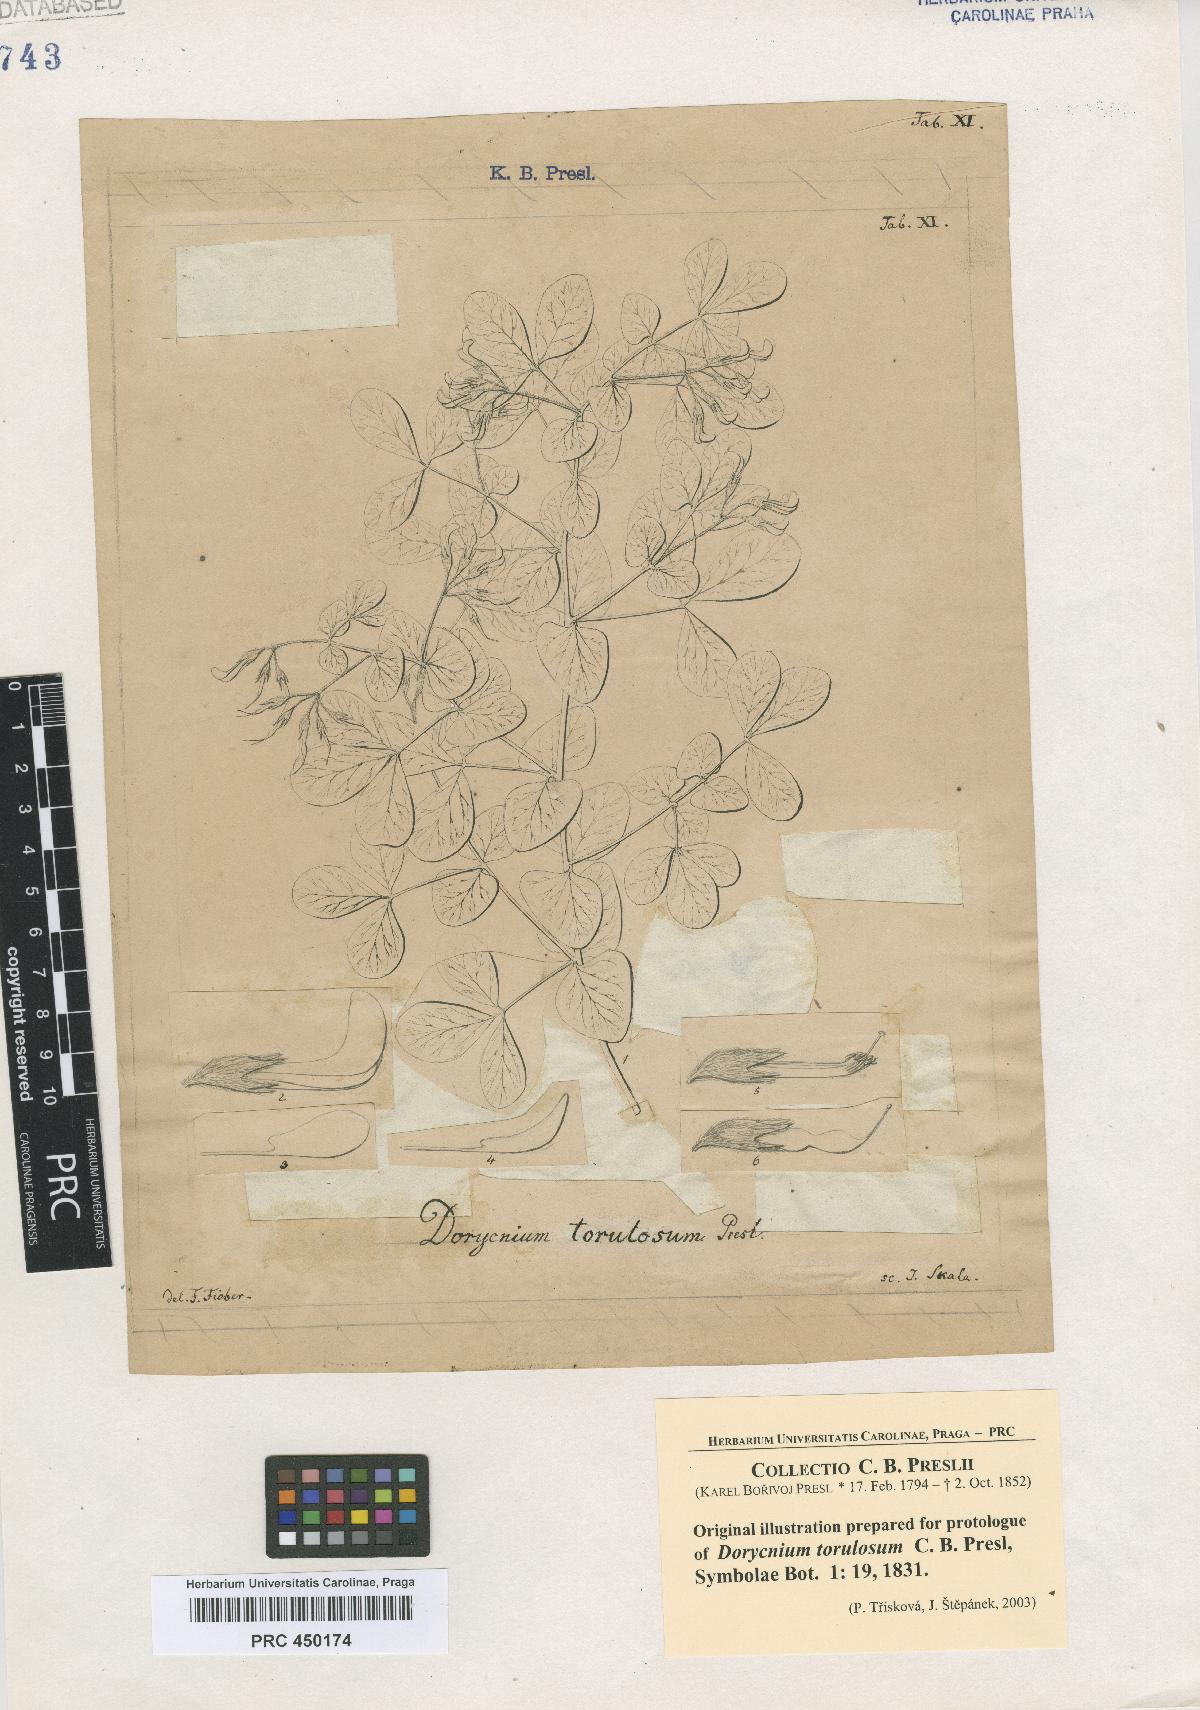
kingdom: Plantae
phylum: Tracheophyta
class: Magnoliopsida
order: Fabales
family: Fabaceae
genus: Lotus
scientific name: Lotus broussonetii
